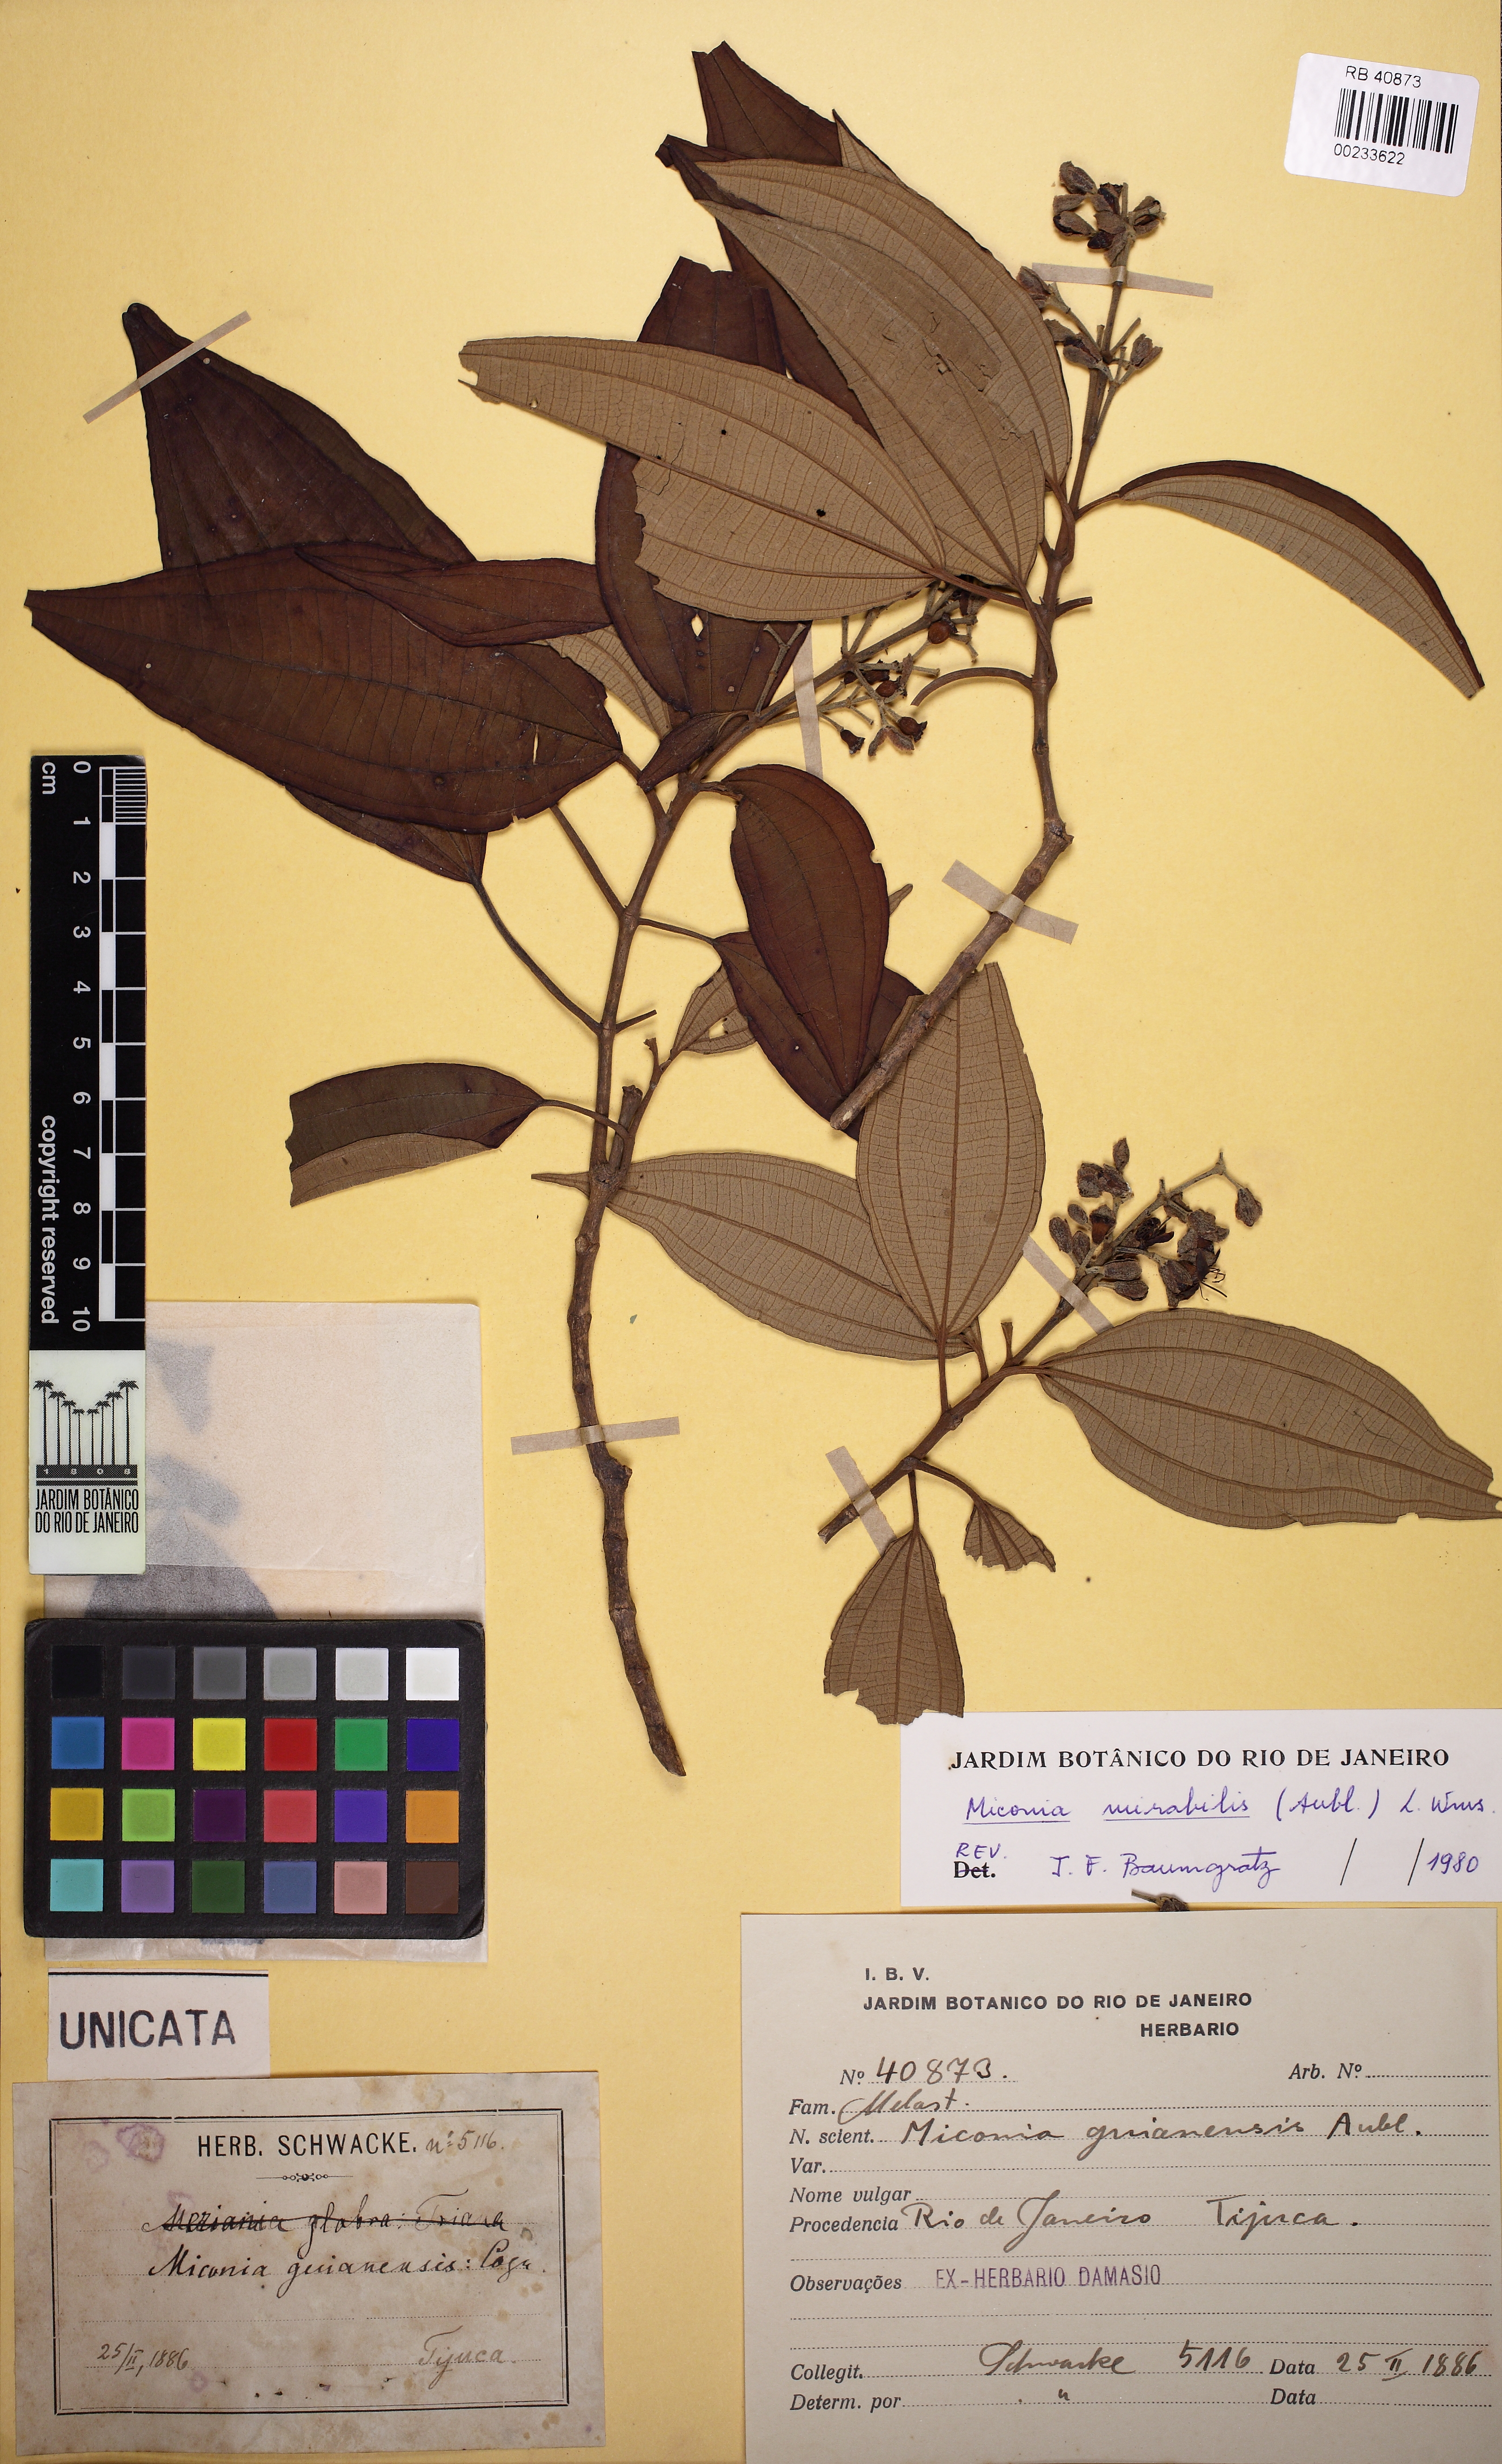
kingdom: Plantae
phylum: Tracheophyta
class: Magnoliopsida
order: Myrtales
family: Melastomataceae
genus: Miconia
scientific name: Miconia mirabilis
